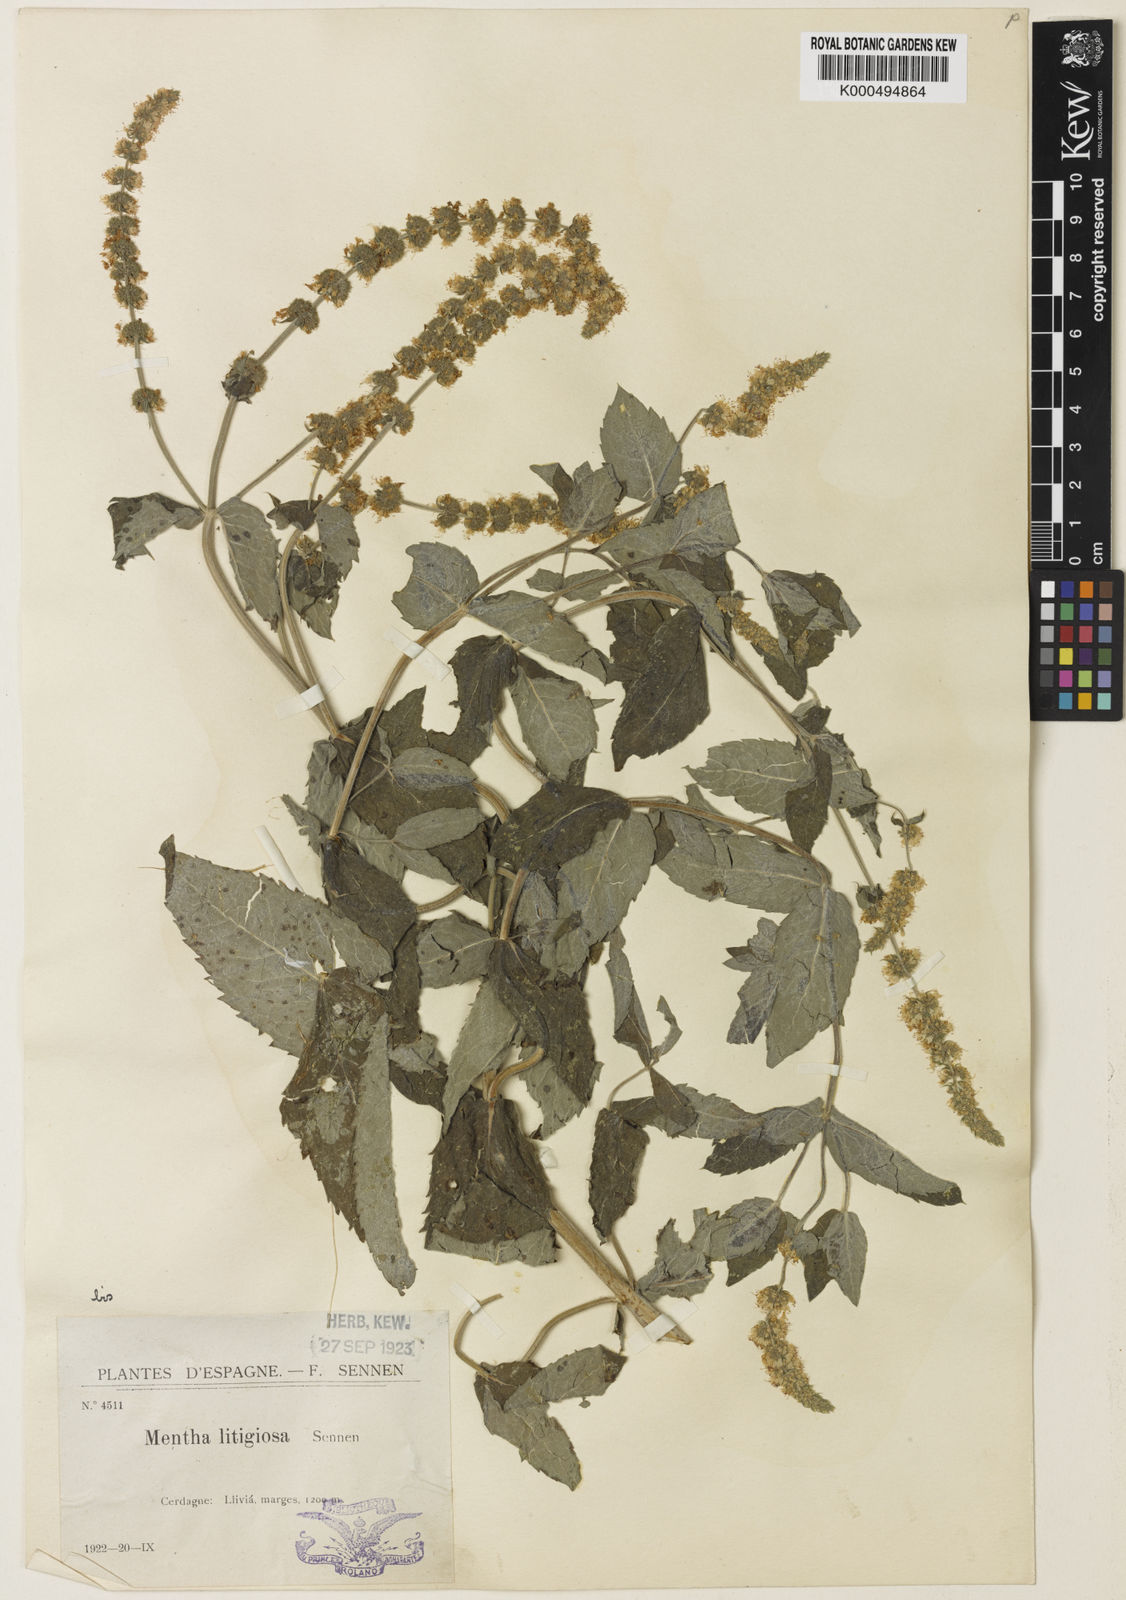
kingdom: Plantae
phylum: Tracheophyta
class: Magnoliopsida
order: Lamiales
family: Lamiaceae
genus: Mentha
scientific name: Mentha rotundifolia
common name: Bigleaf mint
